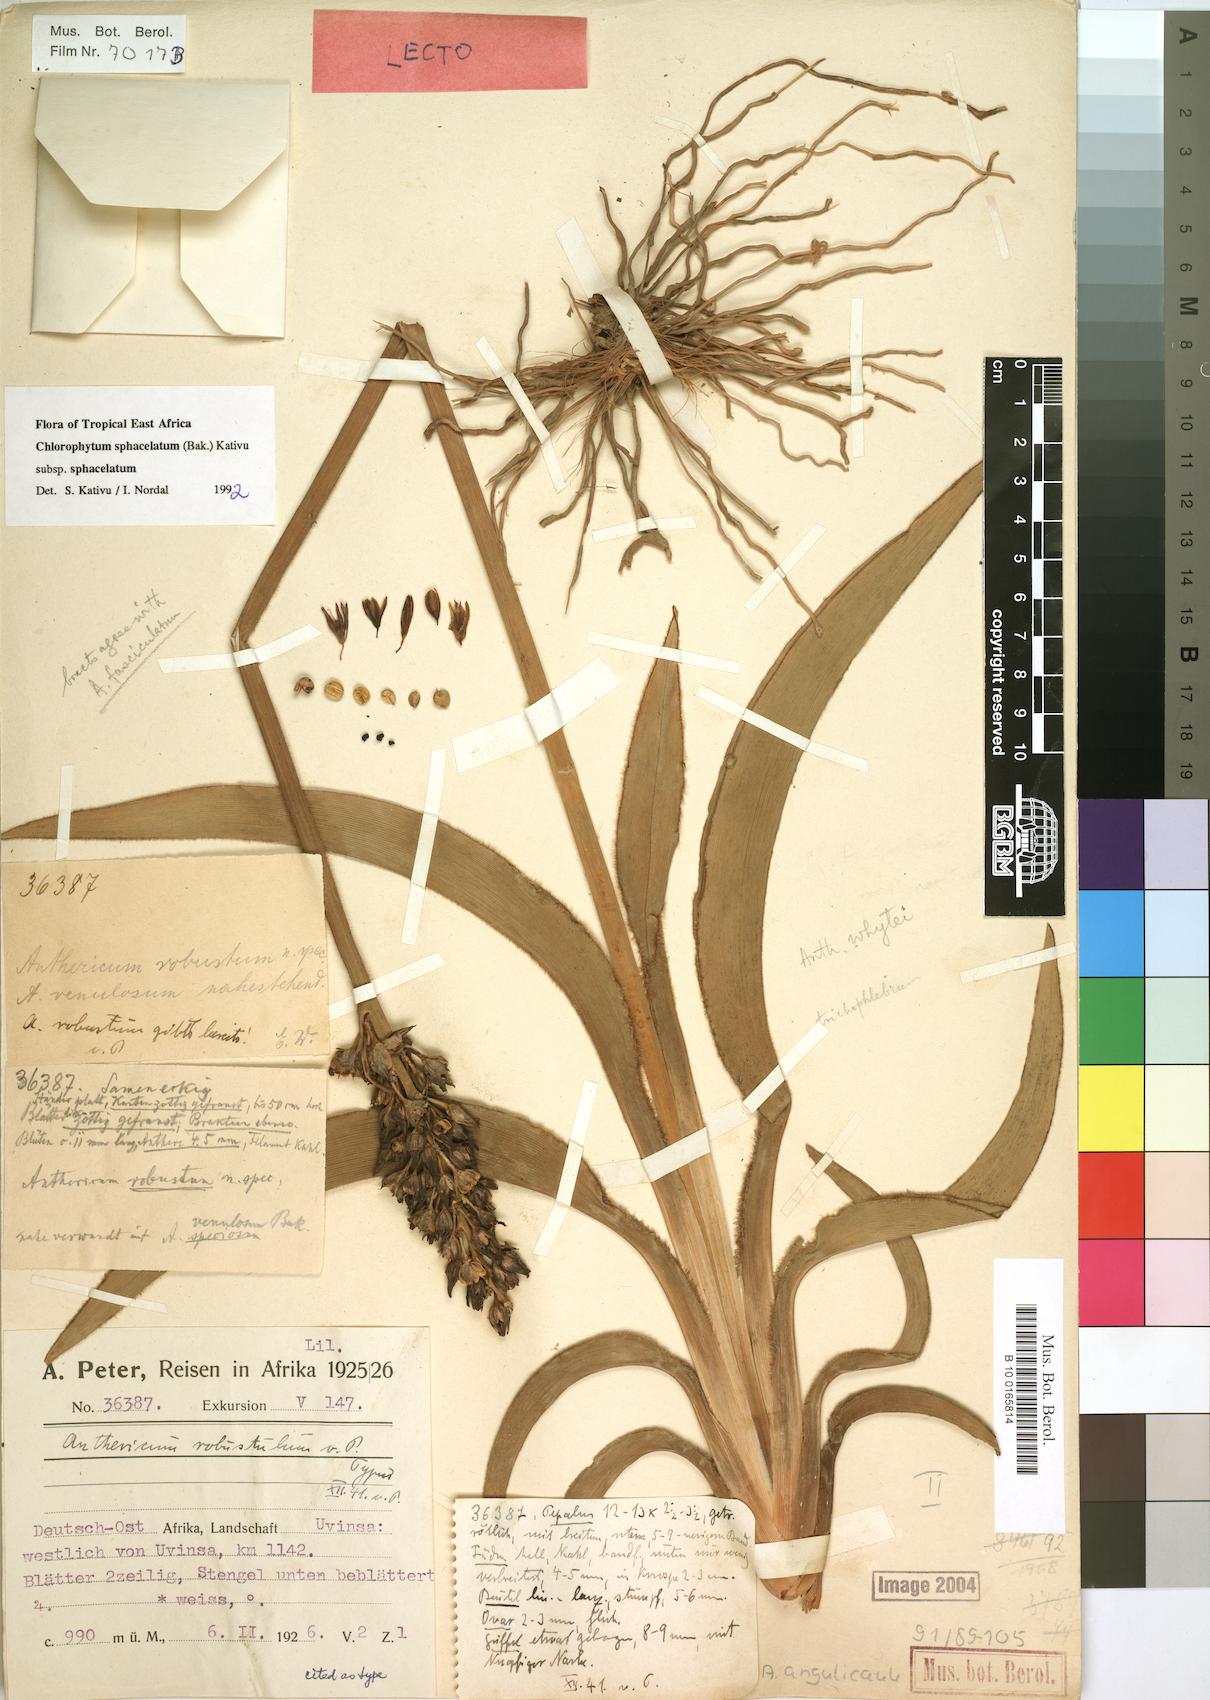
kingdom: Plantae
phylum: Tracheophyta
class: Liliopsida
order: Asparagales
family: Asparagaceae
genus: Chlorophytum
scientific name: Chlorophytum sphacelatum
